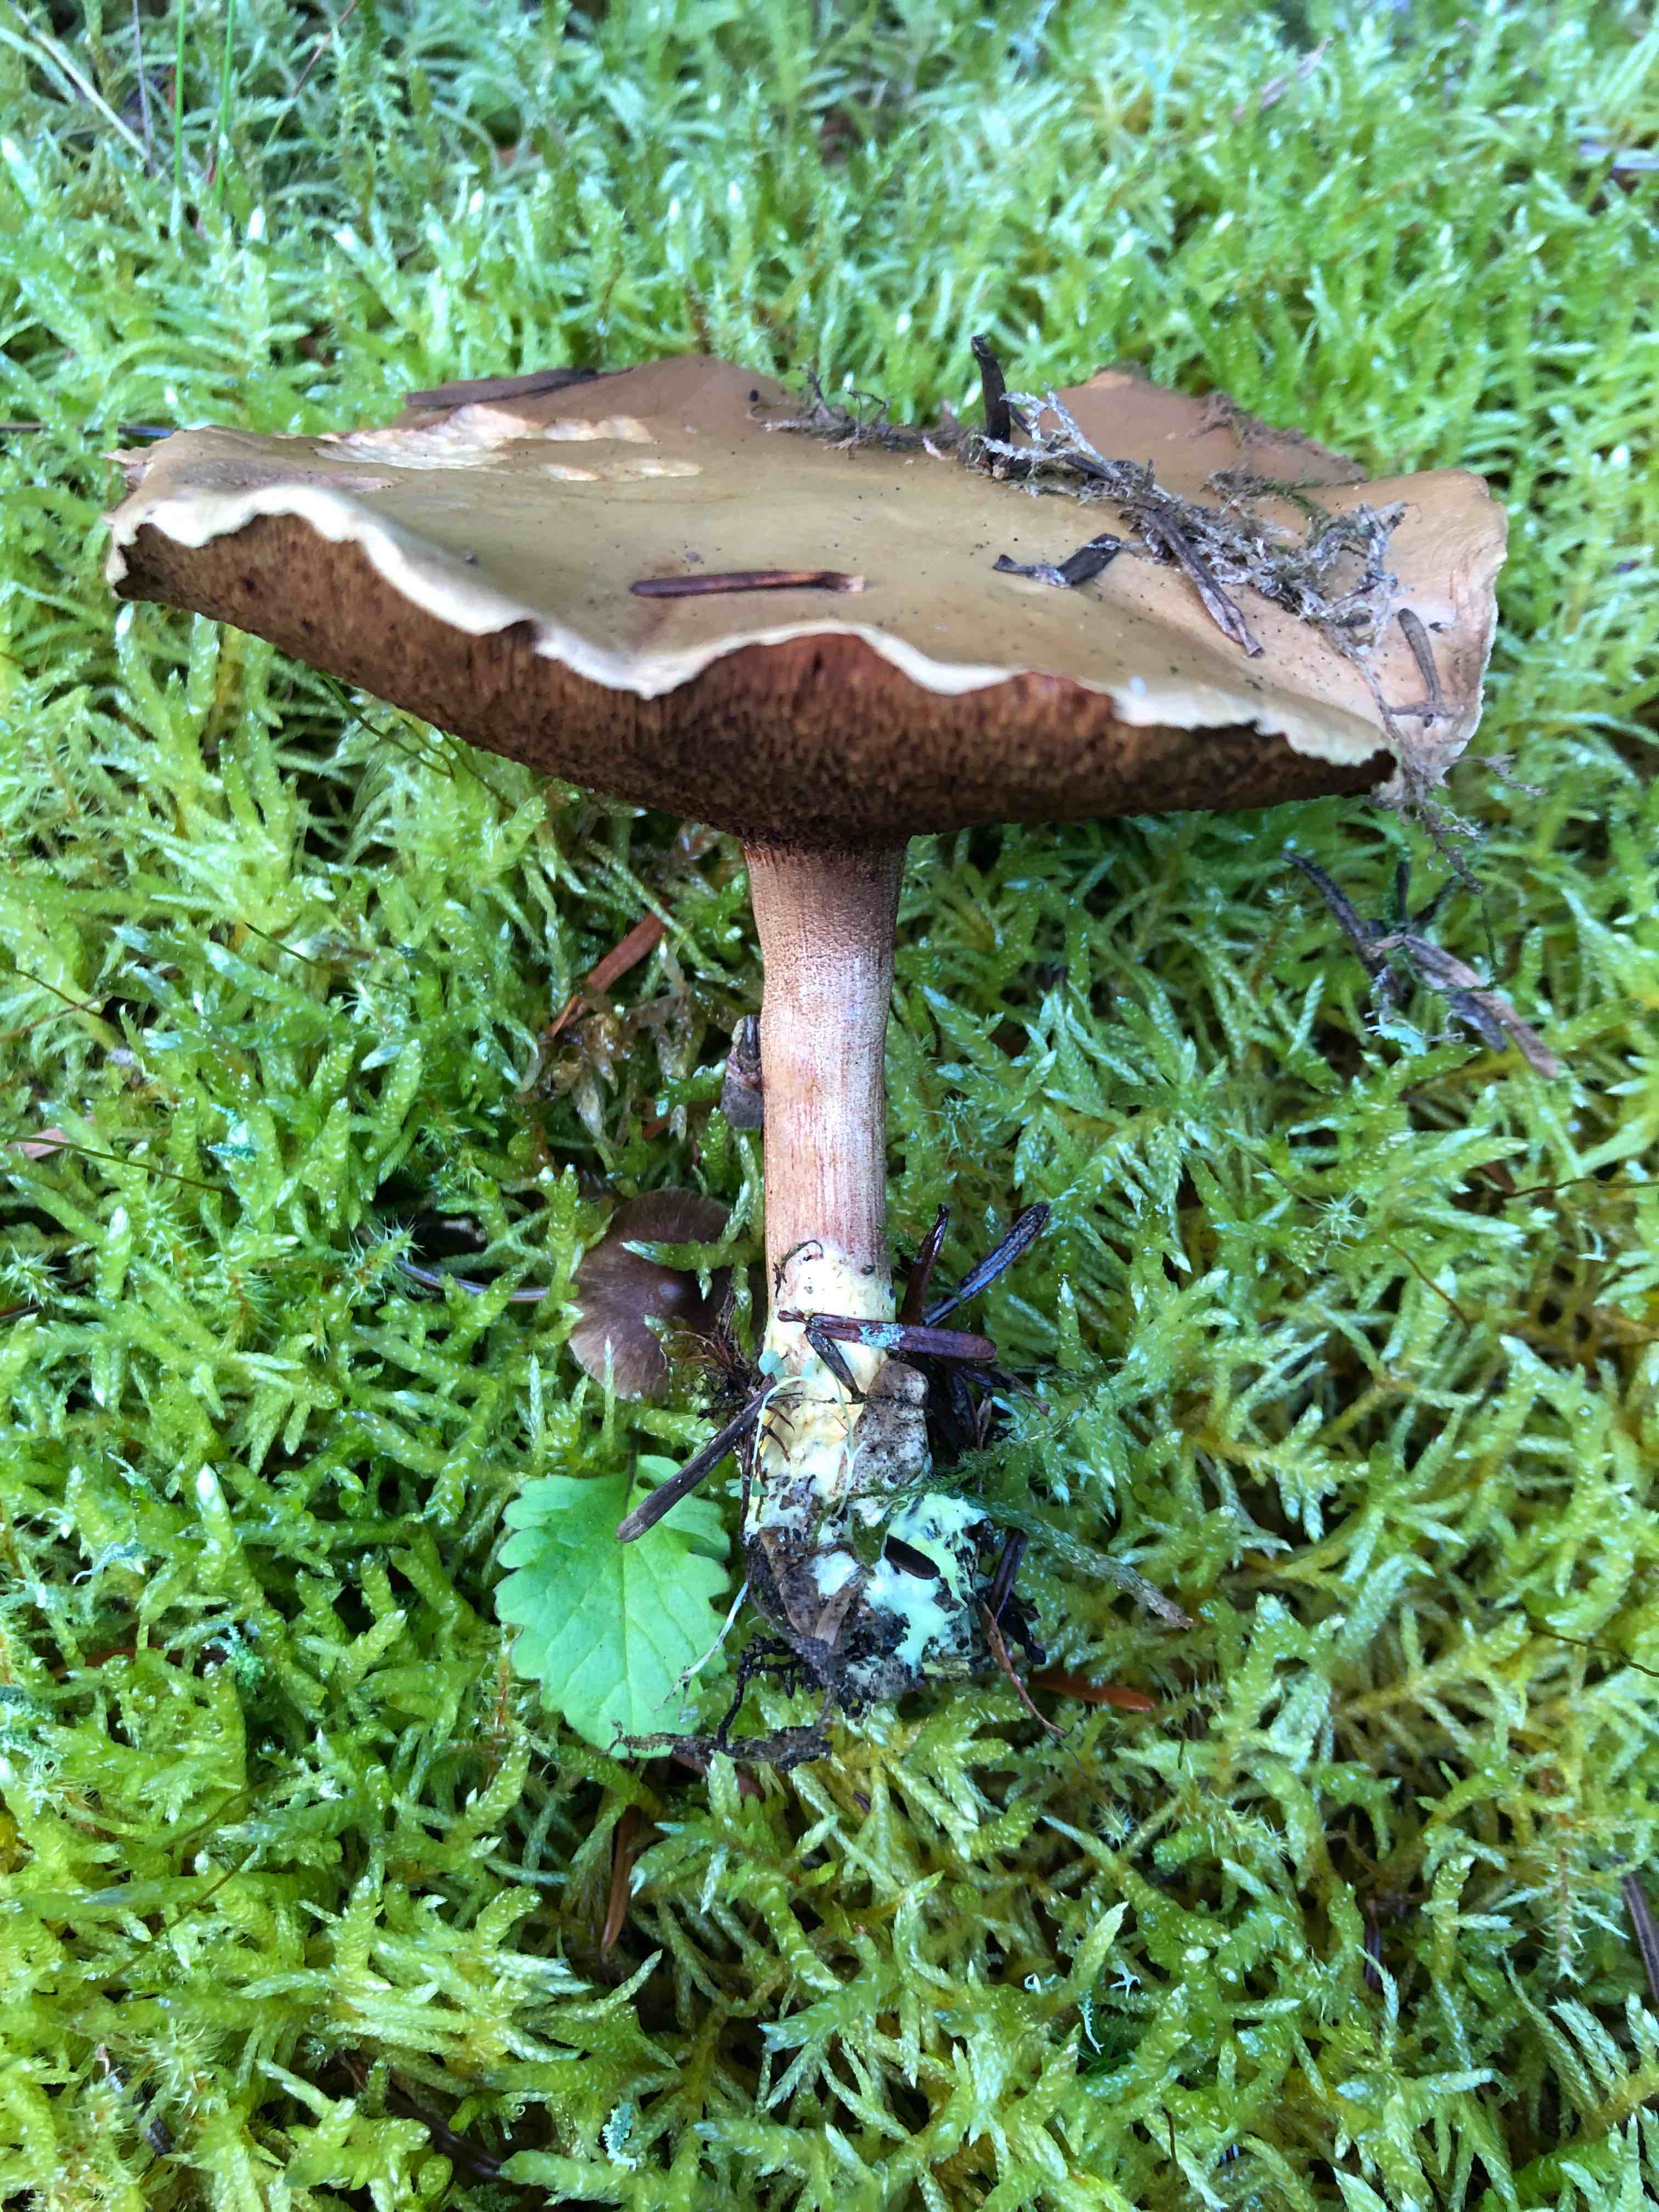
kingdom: Fungi
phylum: Basidiomycota
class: Agaricomycetes
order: Boletales
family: Boletaceae
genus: Chalciporus
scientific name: Chalciporus piperatus
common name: peberrørhat
